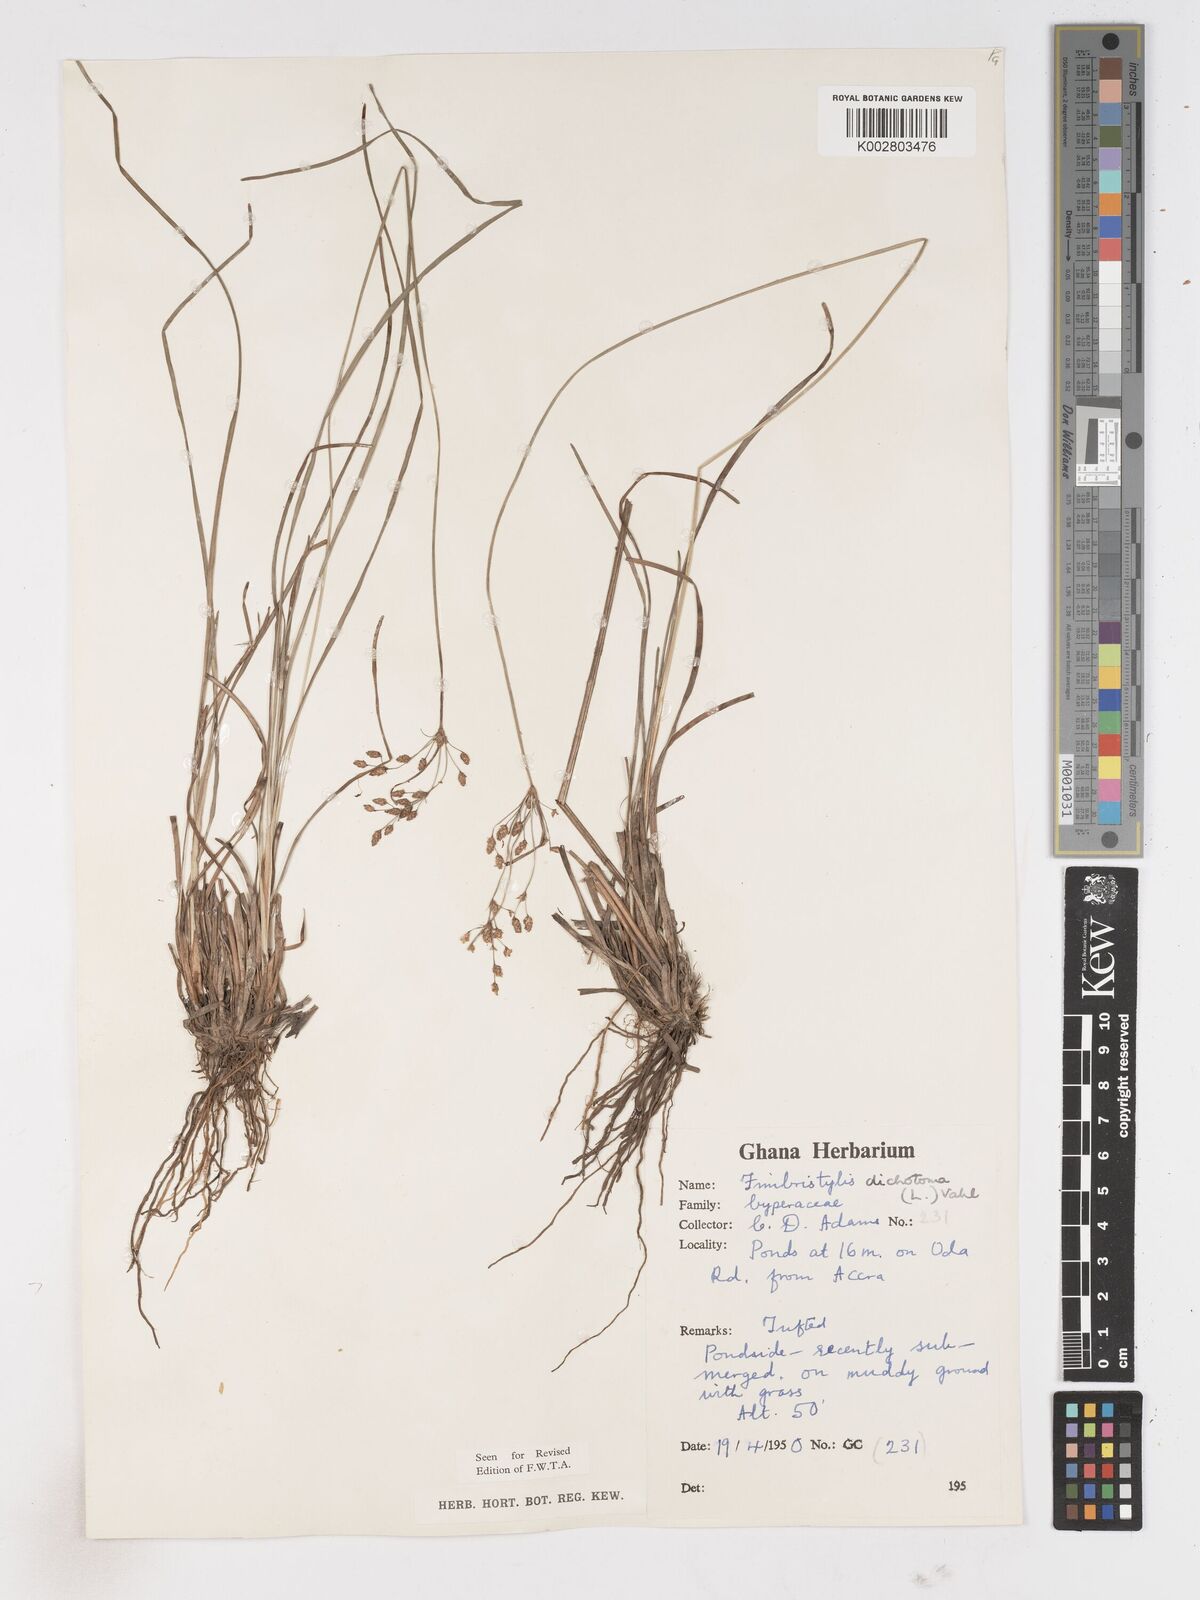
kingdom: Plantae
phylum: Tracheophyta
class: Liliopsida
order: Poales
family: Cyperaceae
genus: Fimbristylis
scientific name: Fimbristylis dichotoma
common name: Forked fimbry
